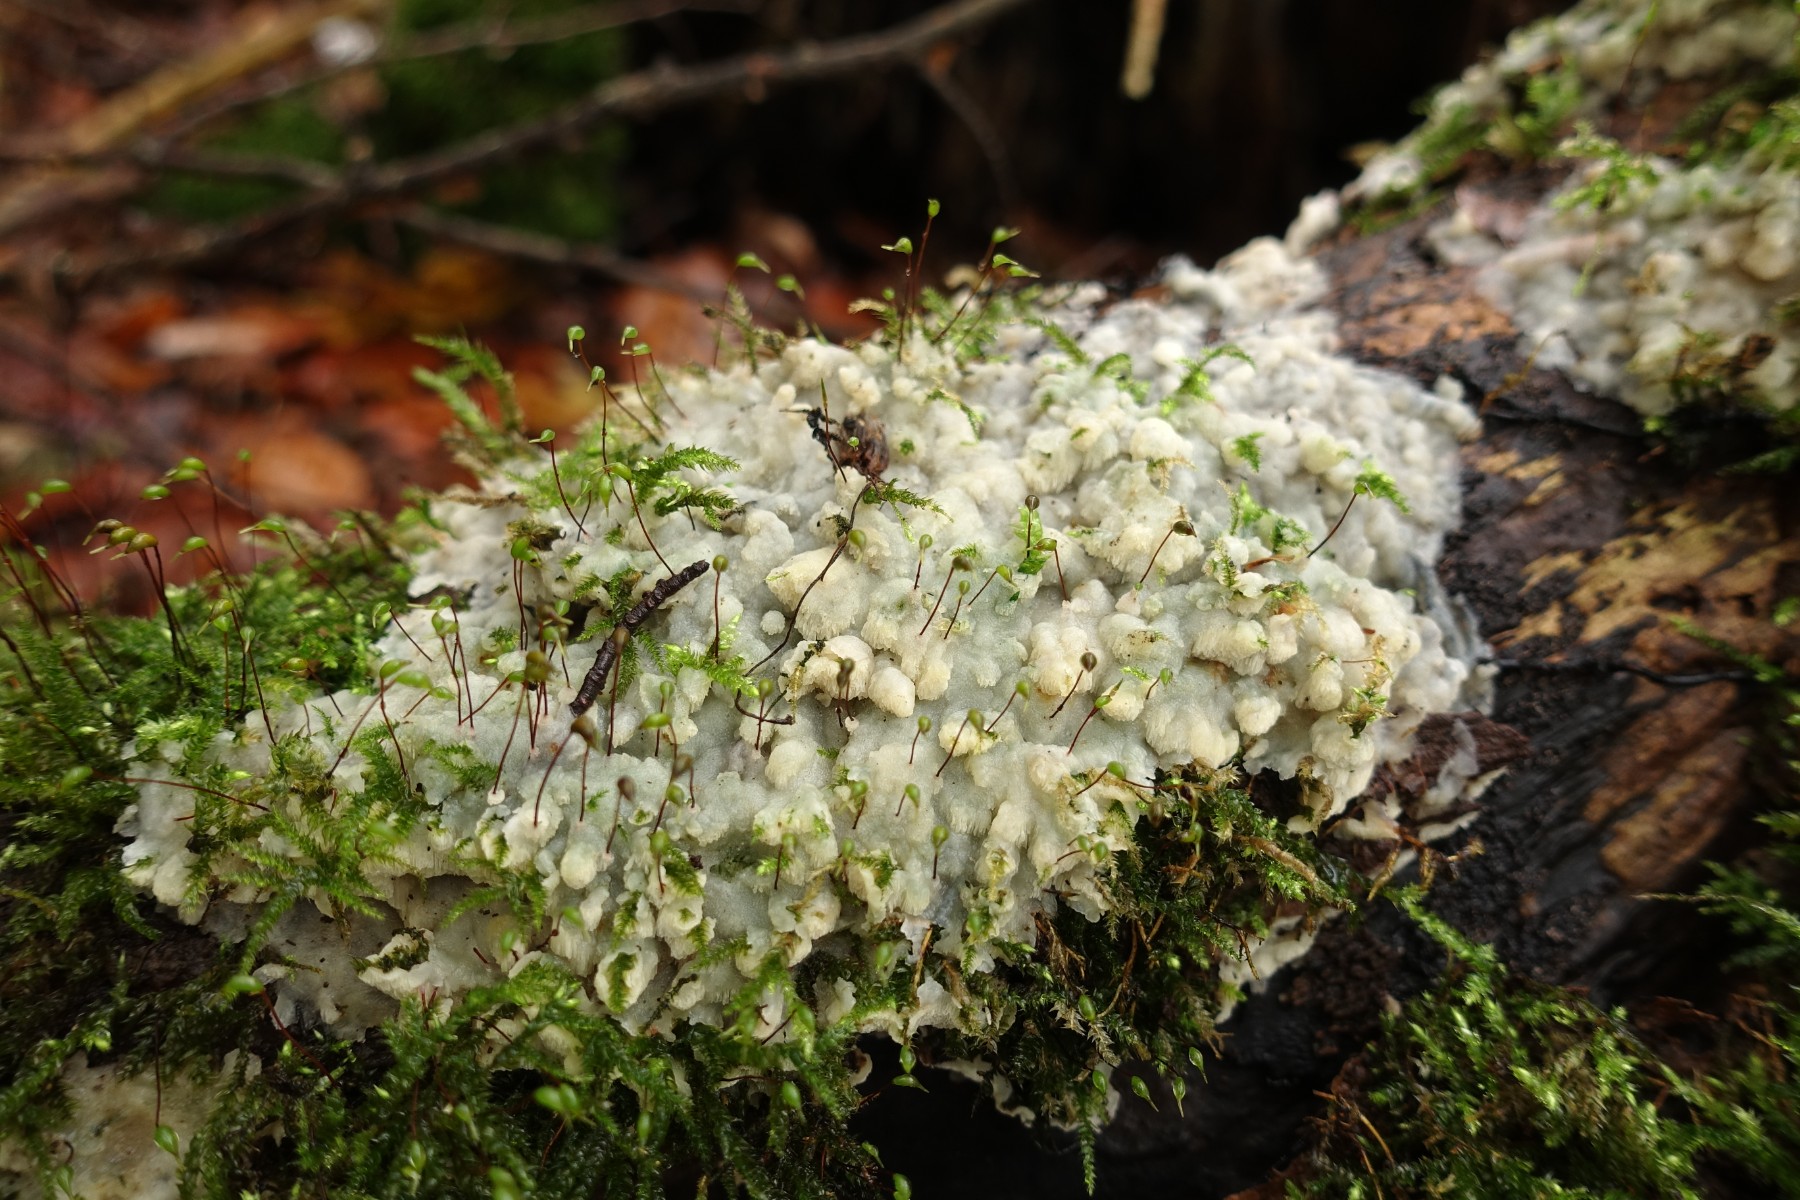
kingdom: Fungi
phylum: Basidiomycota
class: Agaricomycetes
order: Polyporales
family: Meruliaceae
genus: Physisporinus
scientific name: Physisporinus vitreus
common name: mastesvamp
